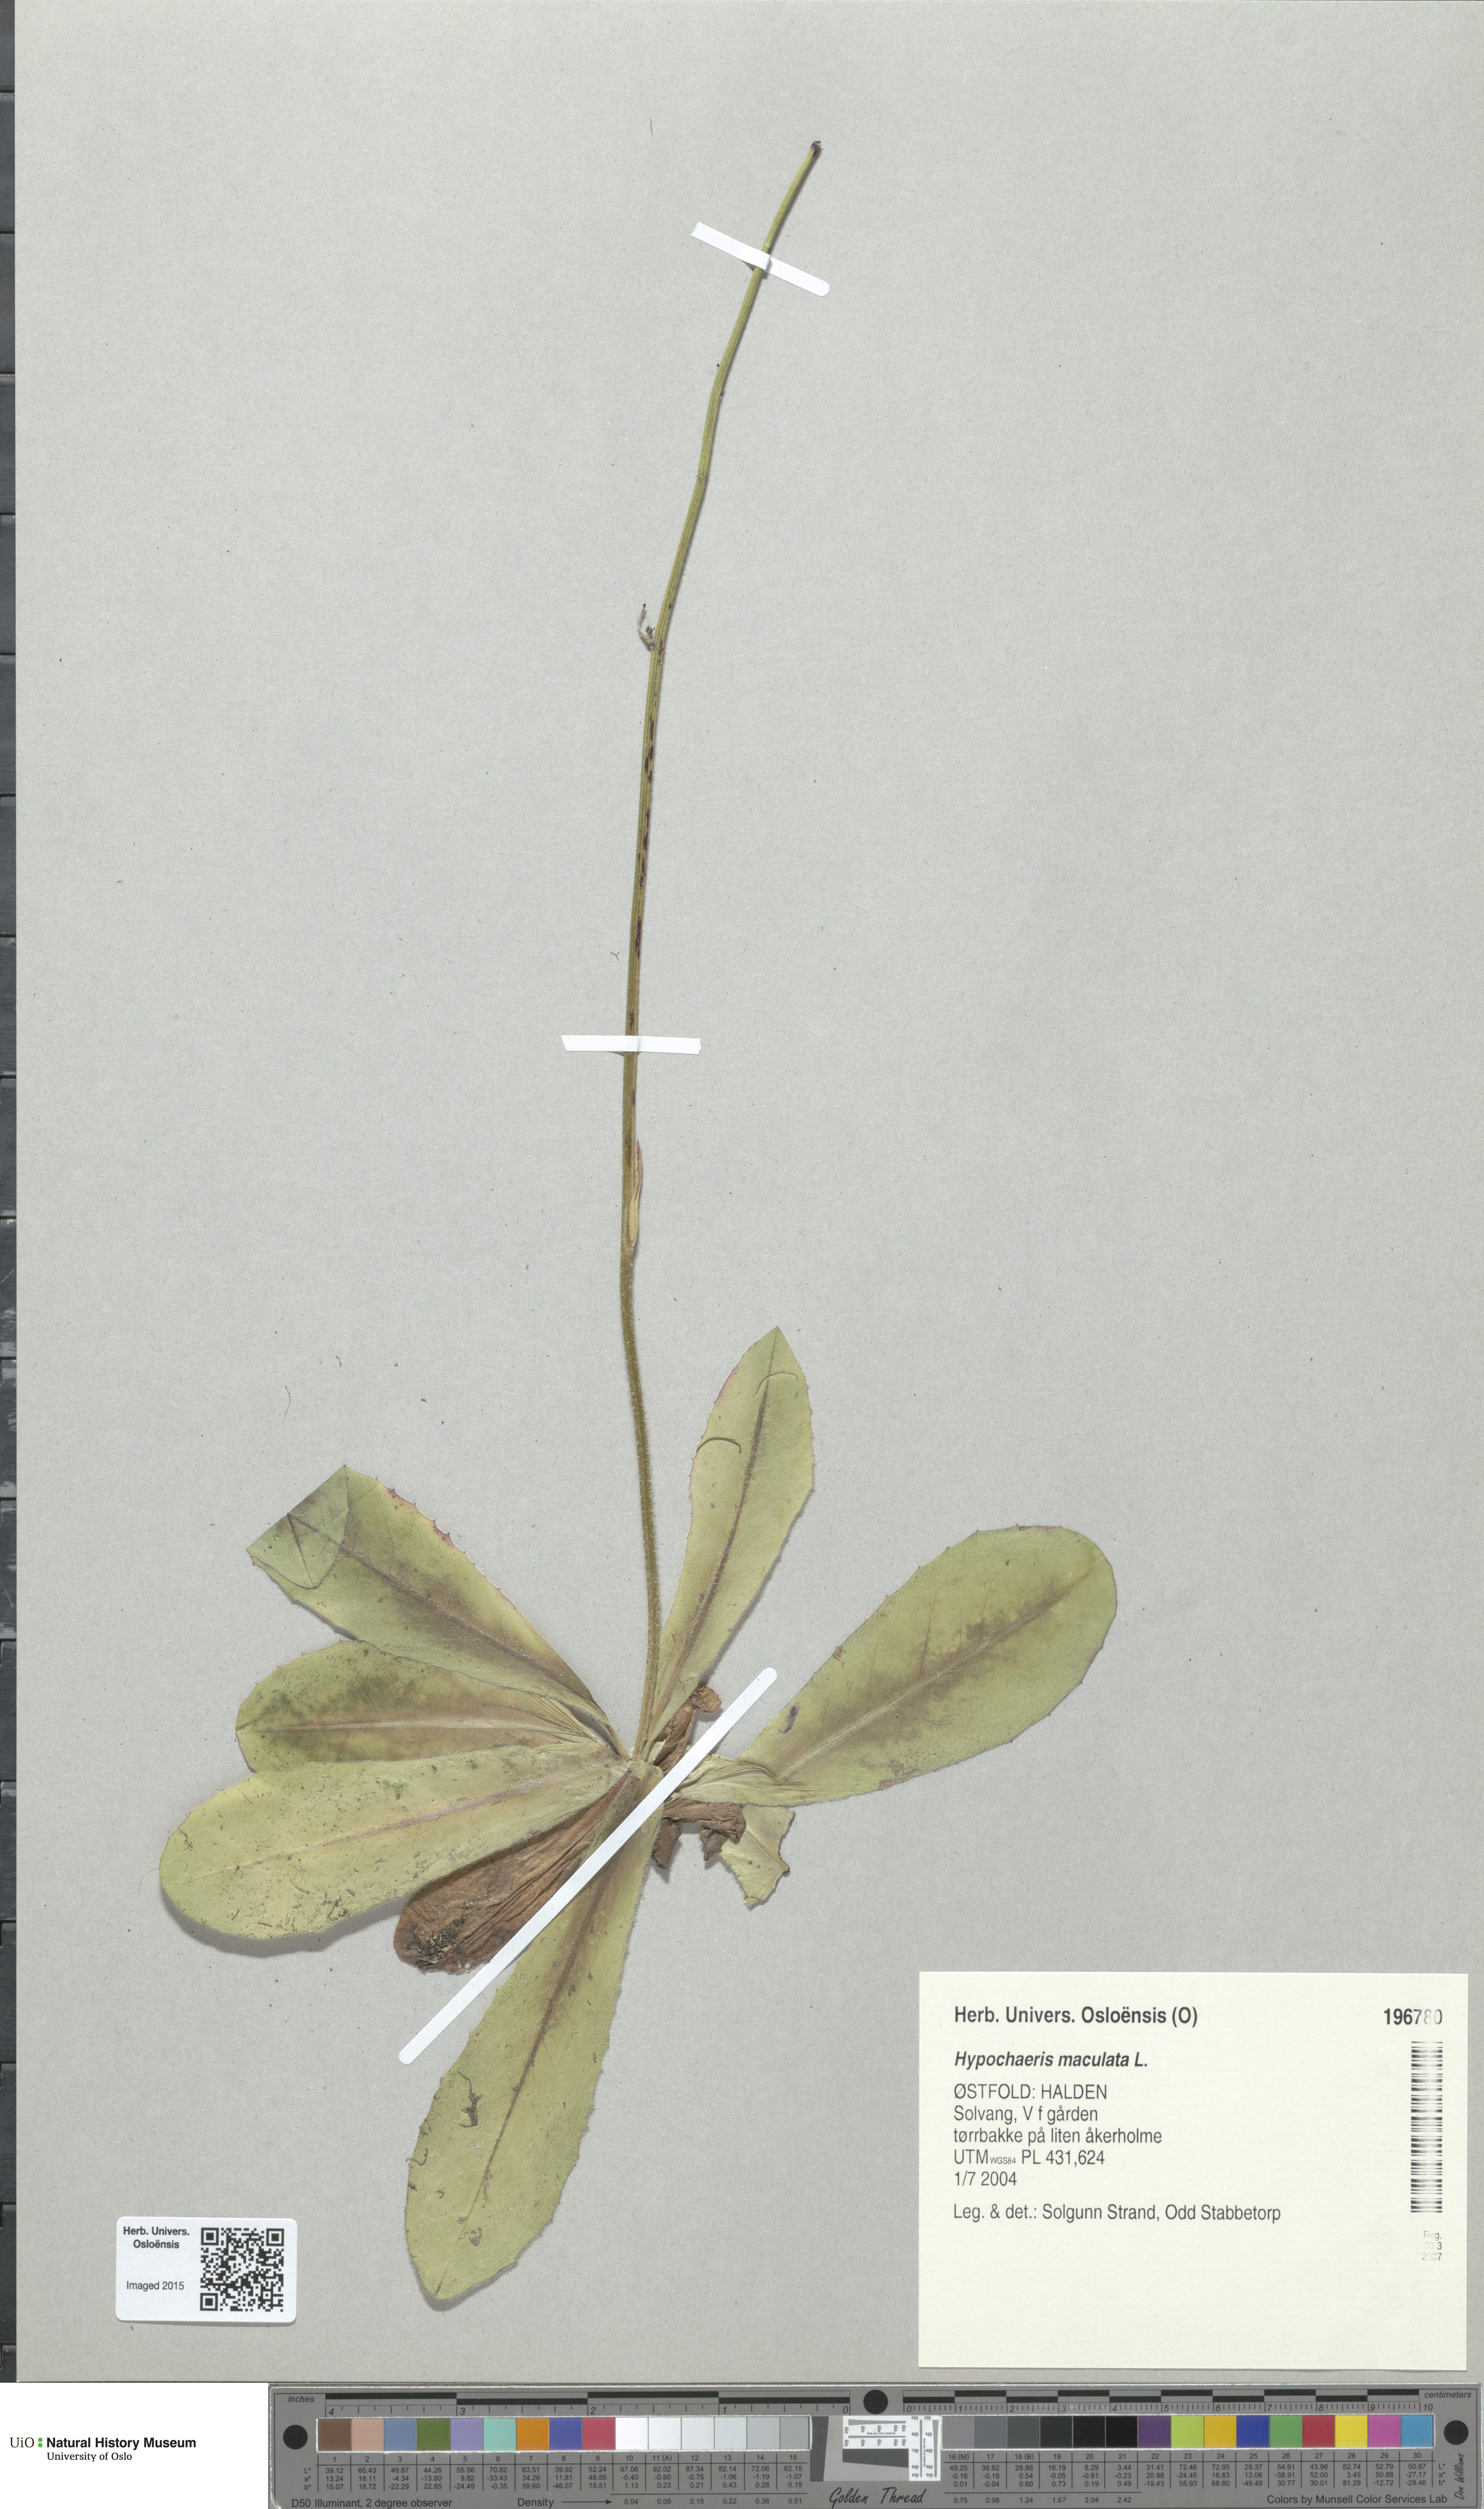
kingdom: Plantae
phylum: Tracheophyta
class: Magnoliopsida
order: Asterales
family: Asteraceae
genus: Trommsdorffia
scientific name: Trommsdorffia maculata
